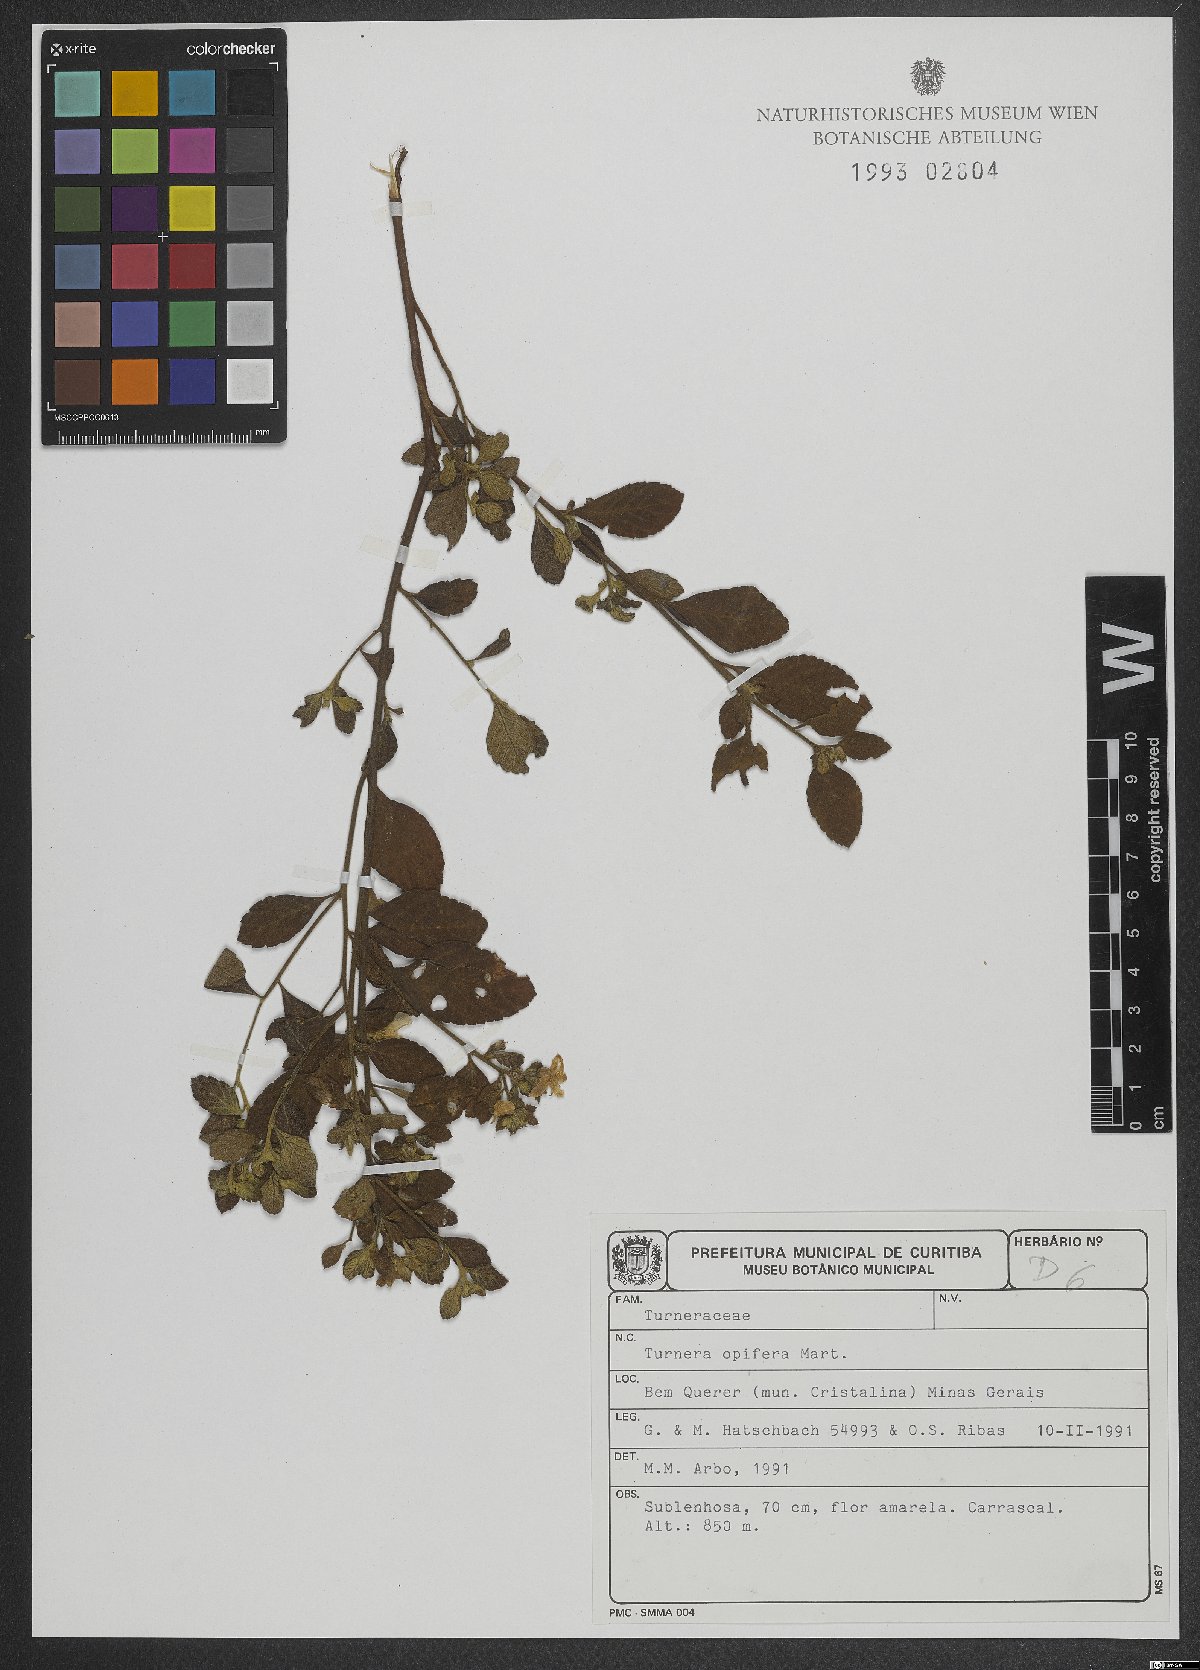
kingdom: Plantae
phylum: Tracheophyta
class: Magnoliopsida
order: Malpighiales
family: Turneraceae
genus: Turnera
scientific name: Turnera opifera
